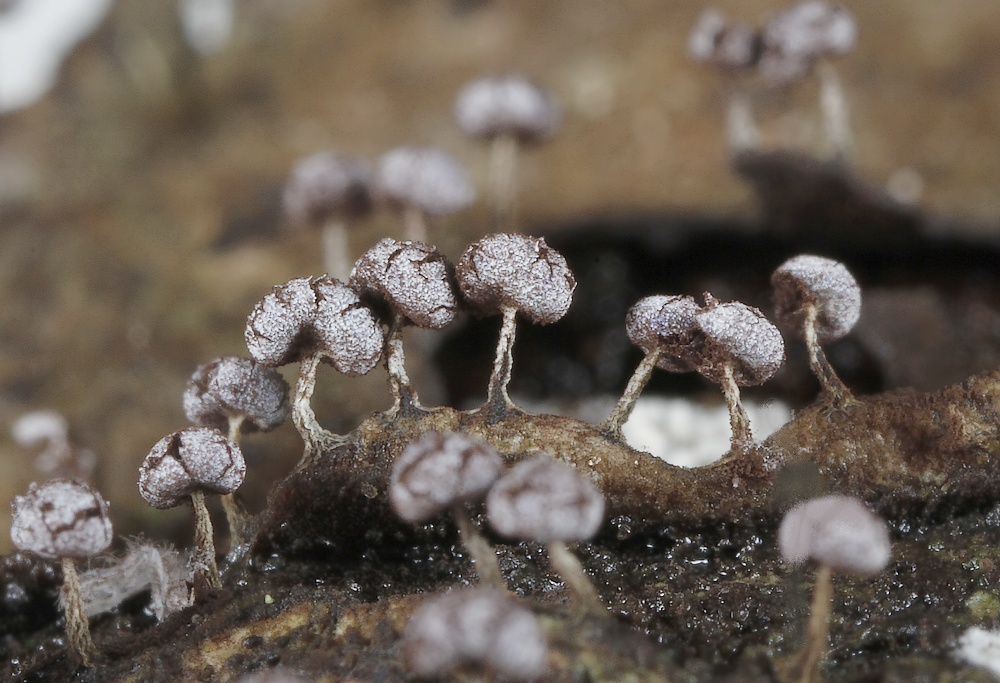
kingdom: Protozoa
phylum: Mycetozoa
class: Myxomycetes
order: Physarales
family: Physaraceae
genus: Physarum
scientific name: Physarum
